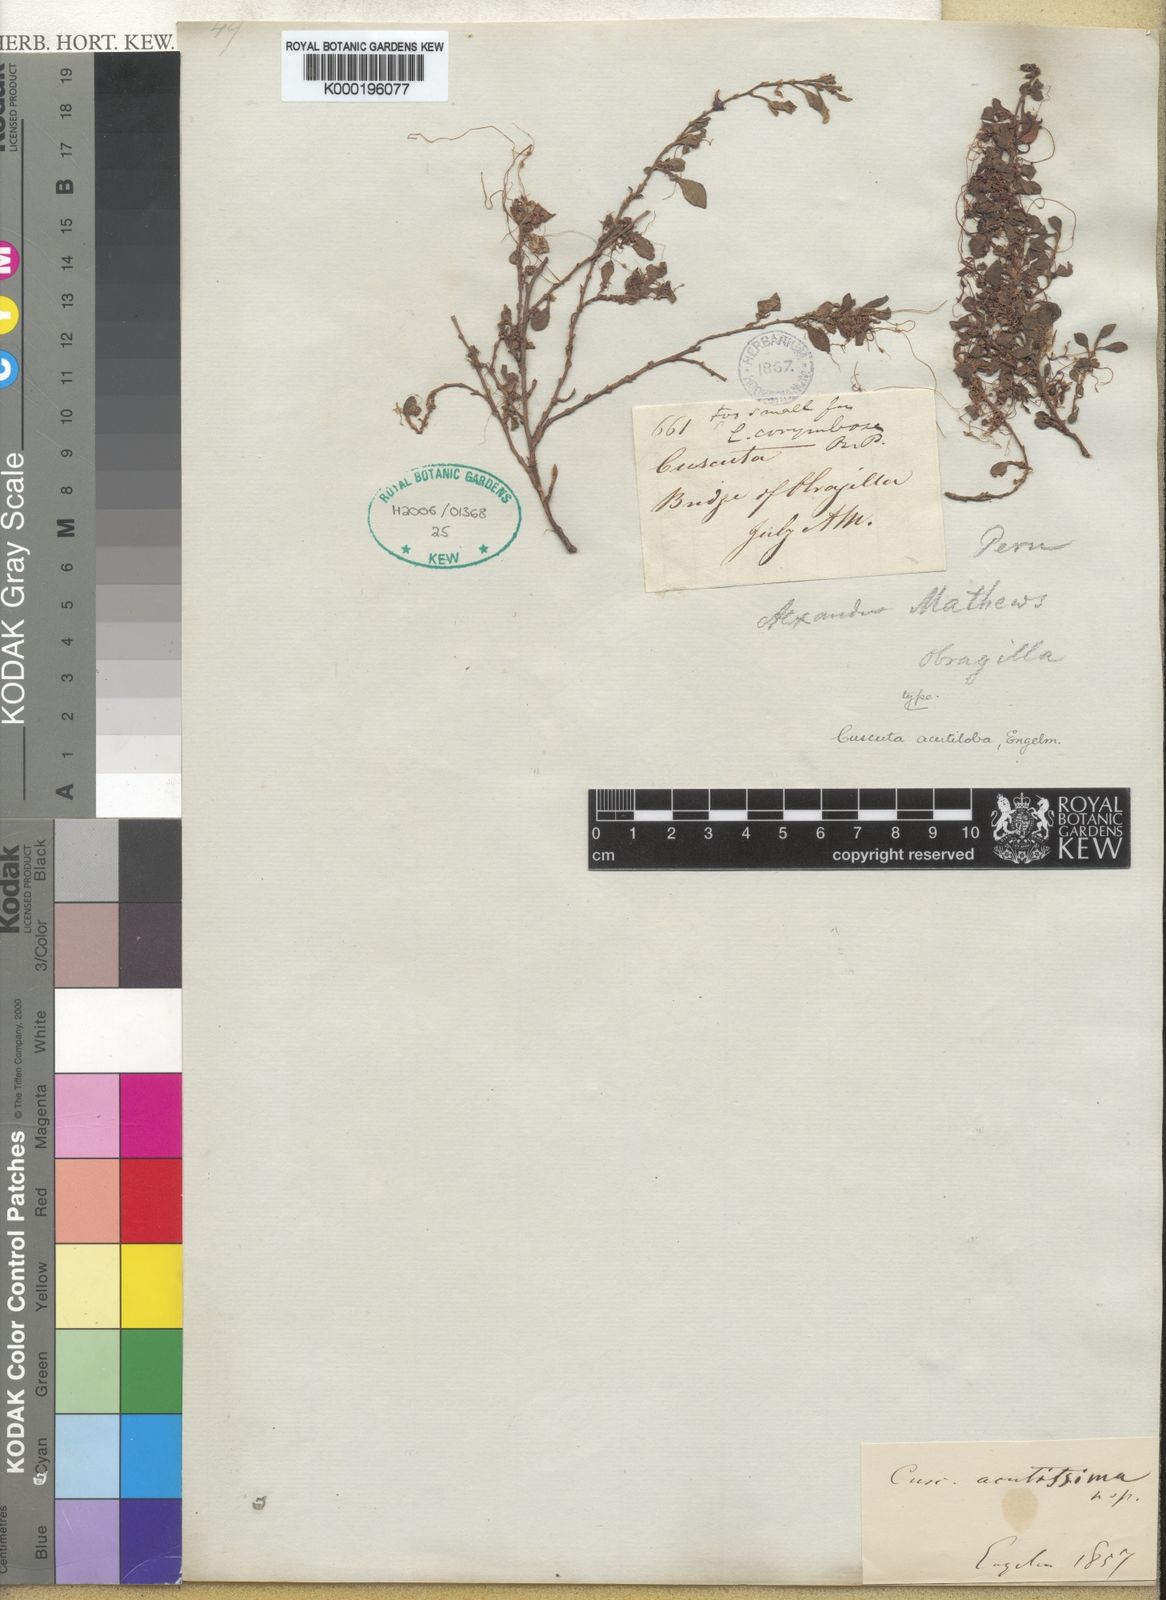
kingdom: Plantae
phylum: Tracheophyta
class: Magnoliopsida
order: Solanales
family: Convolvulaceae
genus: Cuscuta
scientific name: Cuscuta acutiloba
